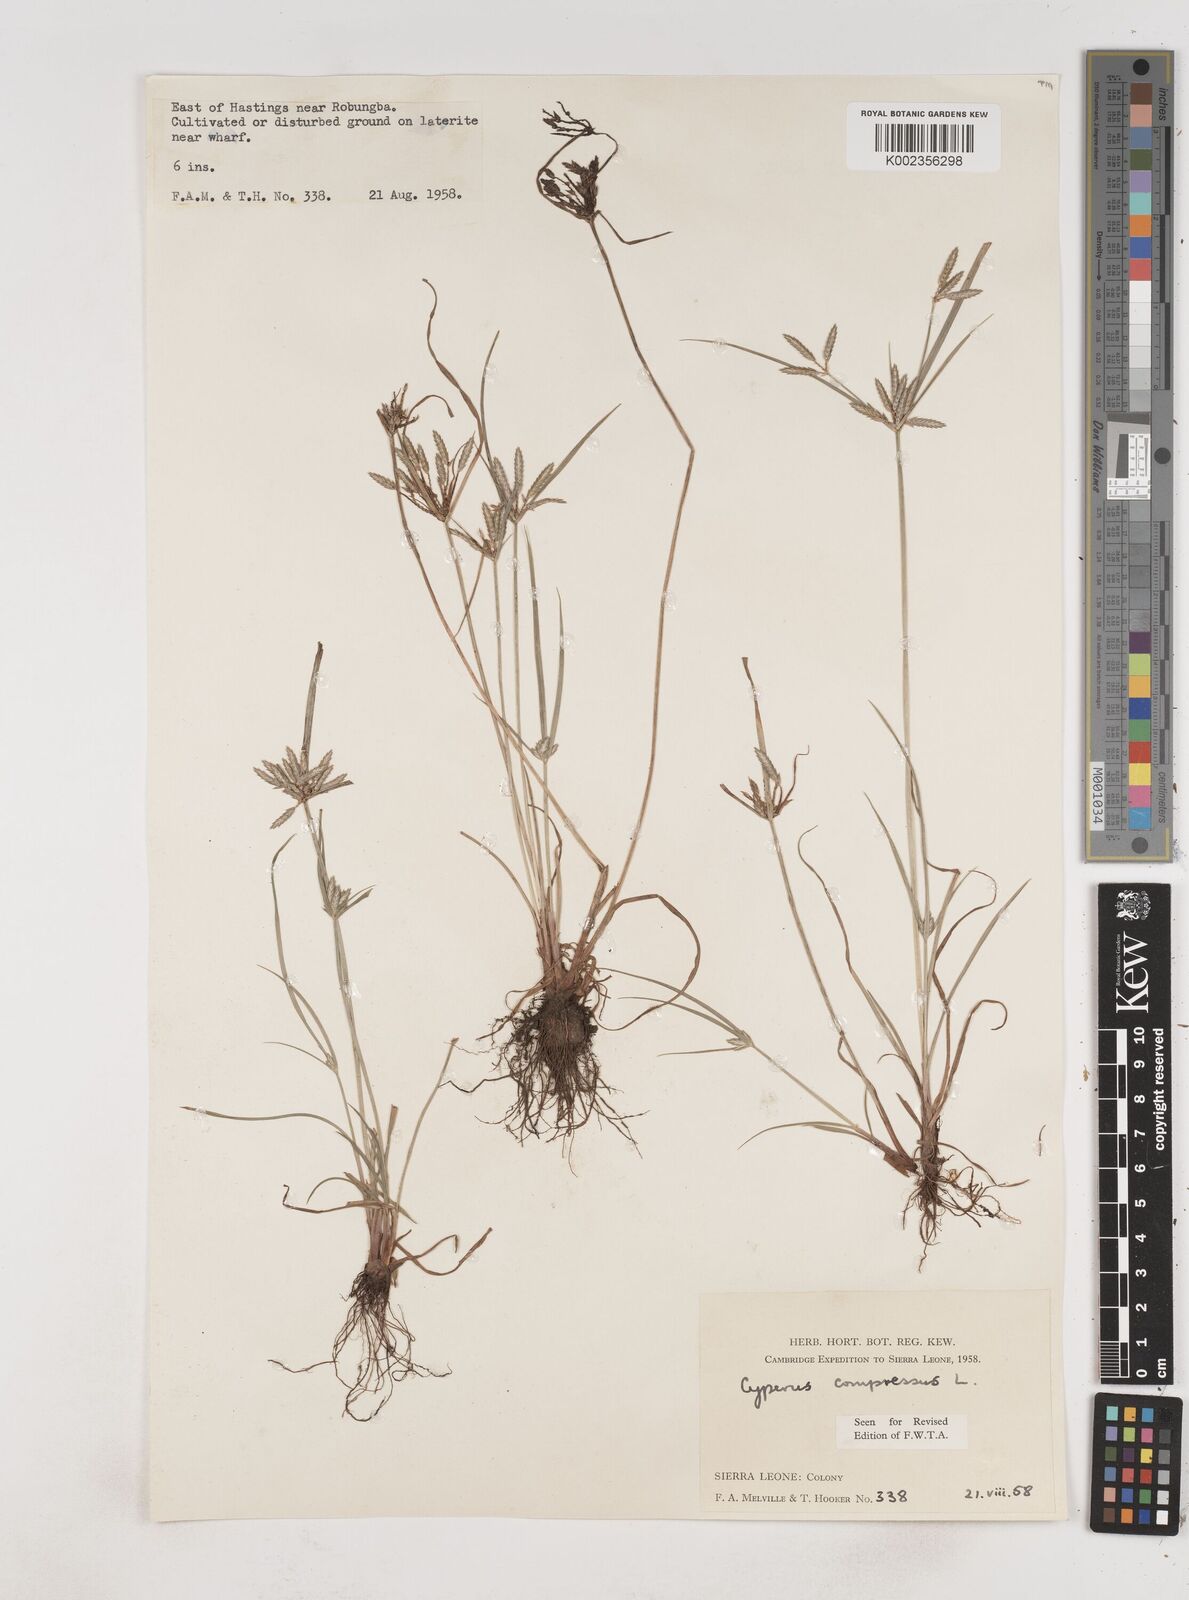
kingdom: Plantae
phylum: Tracheophyta
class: Liliopsida
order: Poales
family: Cyperaceae
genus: Cyperus
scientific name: Cyperus compressus
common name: Poorland flatsedge
